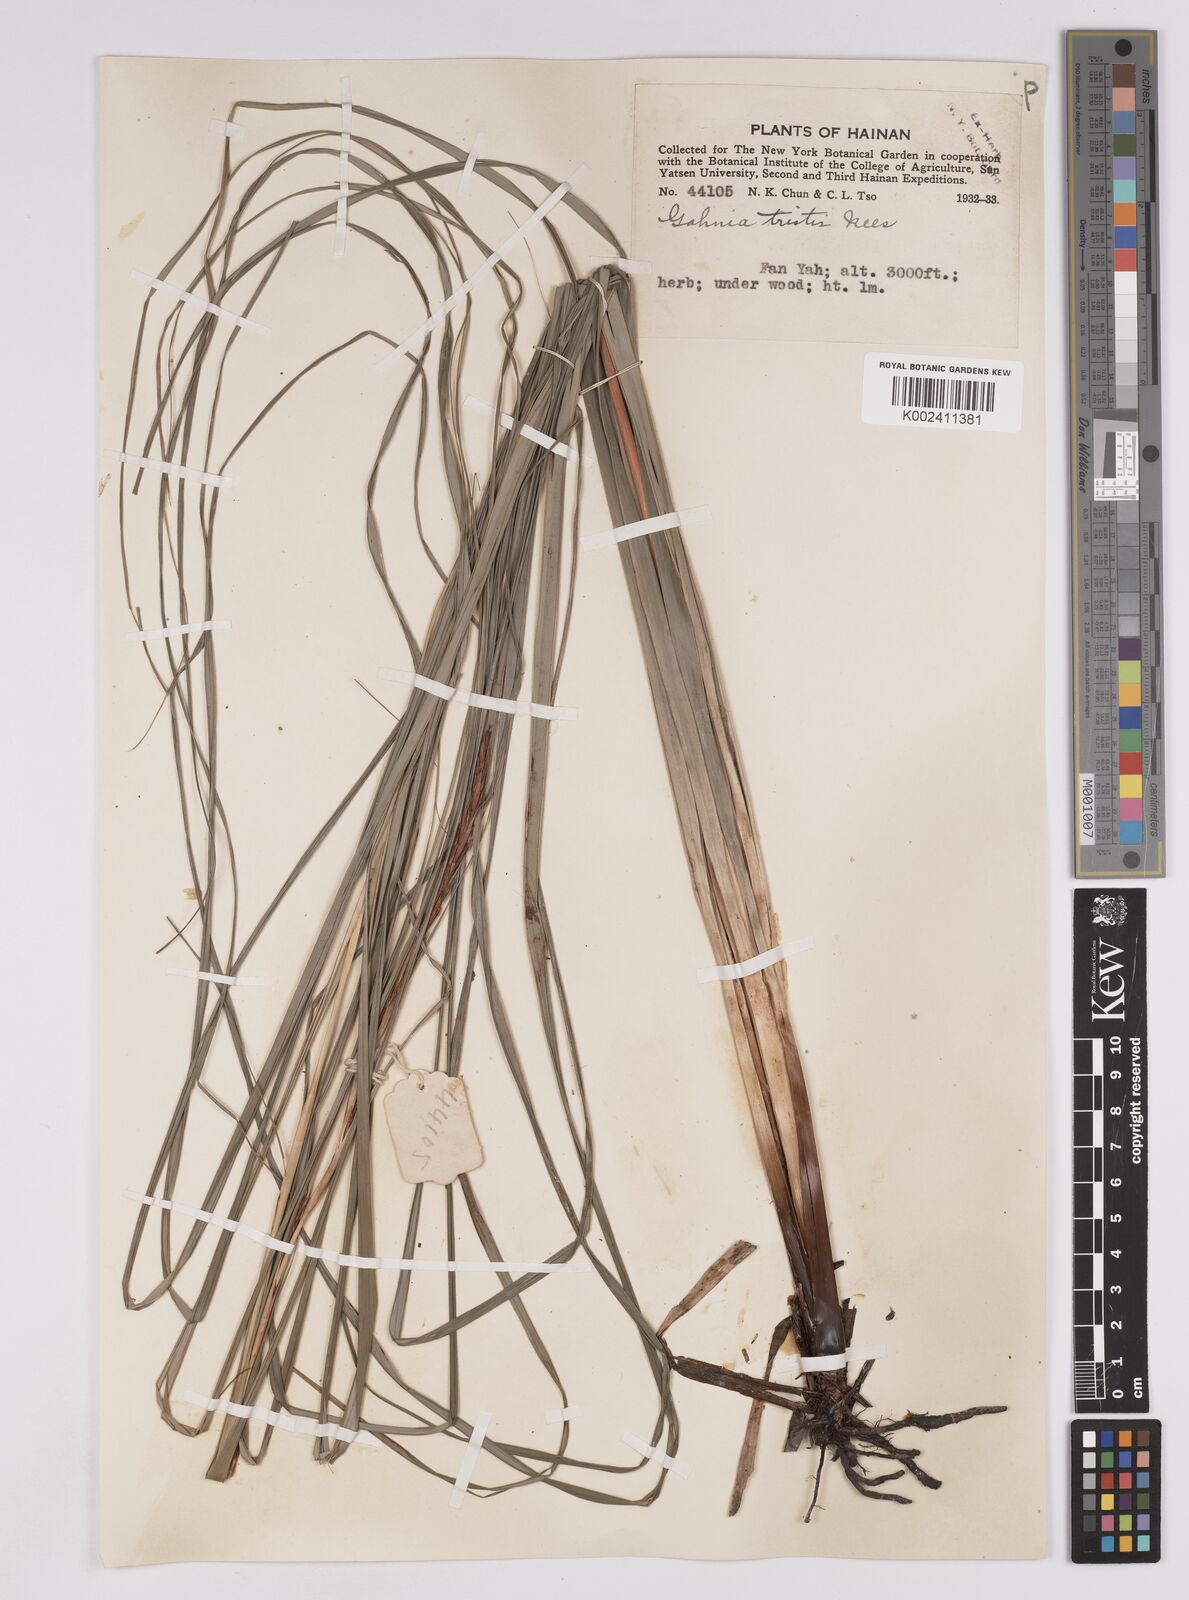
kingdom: Plantae
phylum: Tracheophyta
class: Liliopsida
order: Poales
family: Cyperaceae
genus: Gahnia
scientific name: Gahnia tristis
